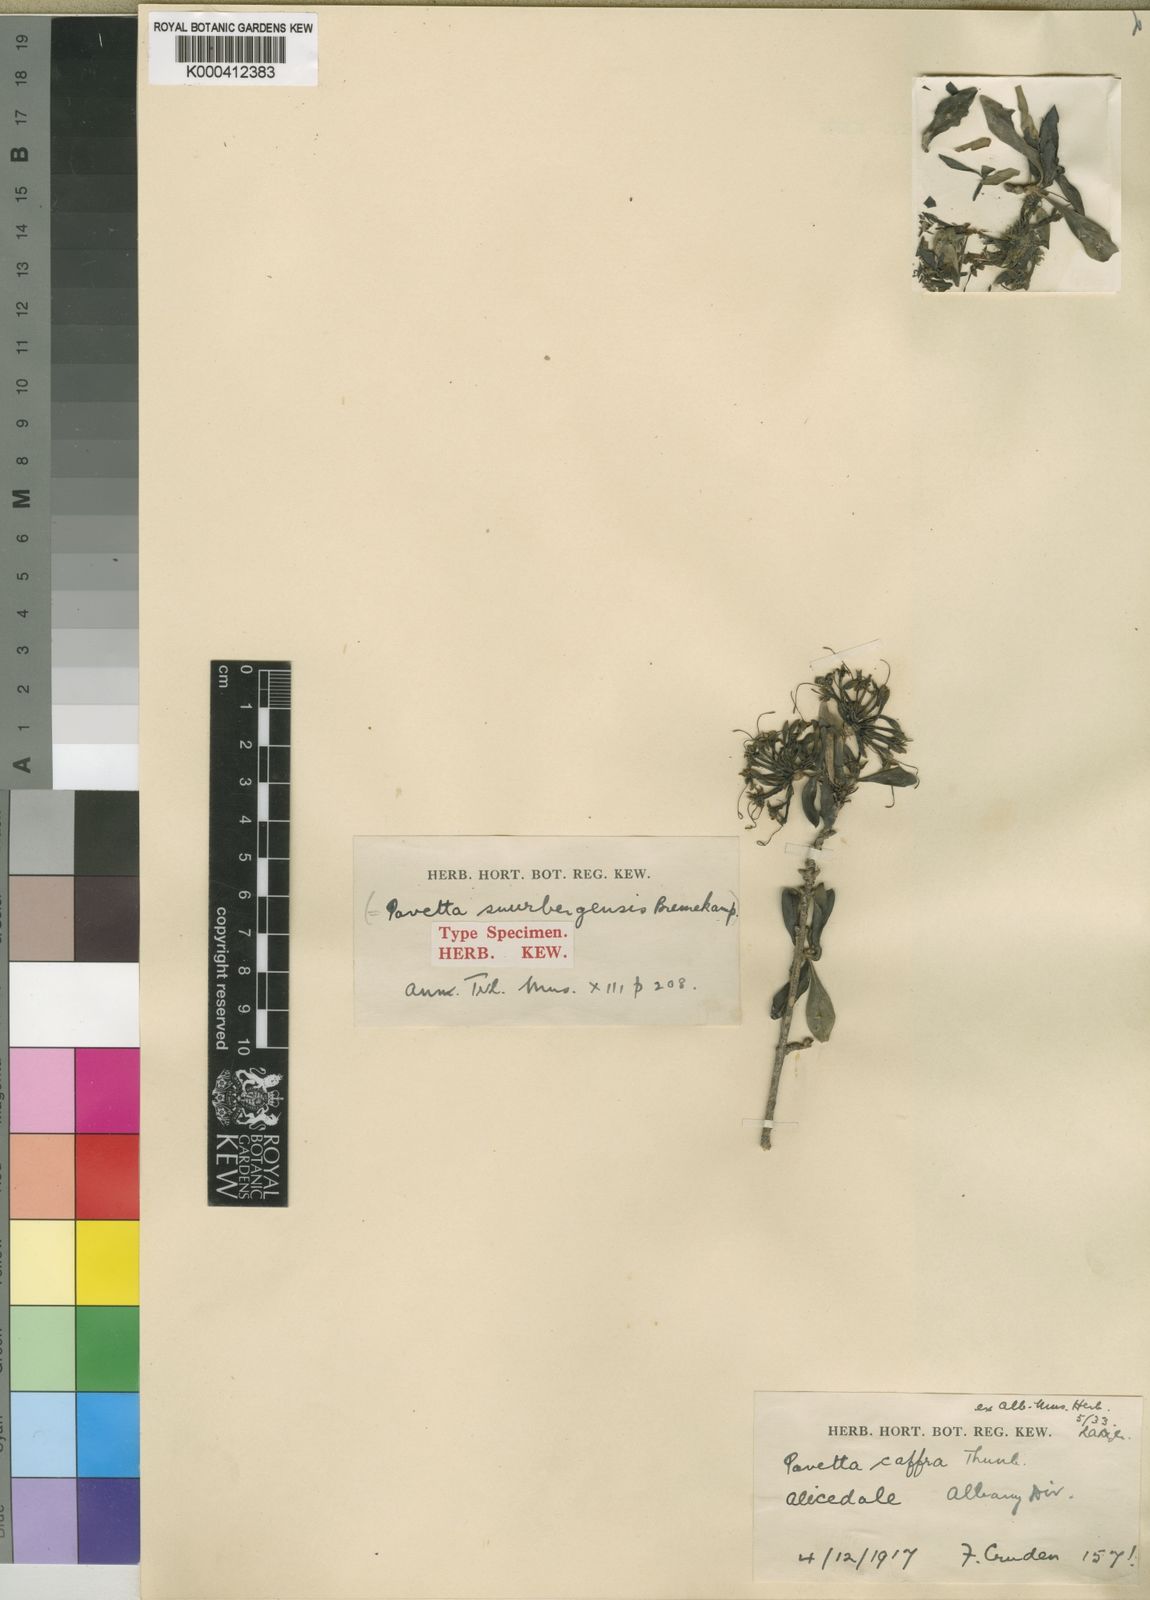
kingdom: Plantae
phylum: Tracheophyta
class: Magnoliopsida
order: Gentianales
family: Rubiaceae
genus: Pavetta
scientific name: Pavetta
